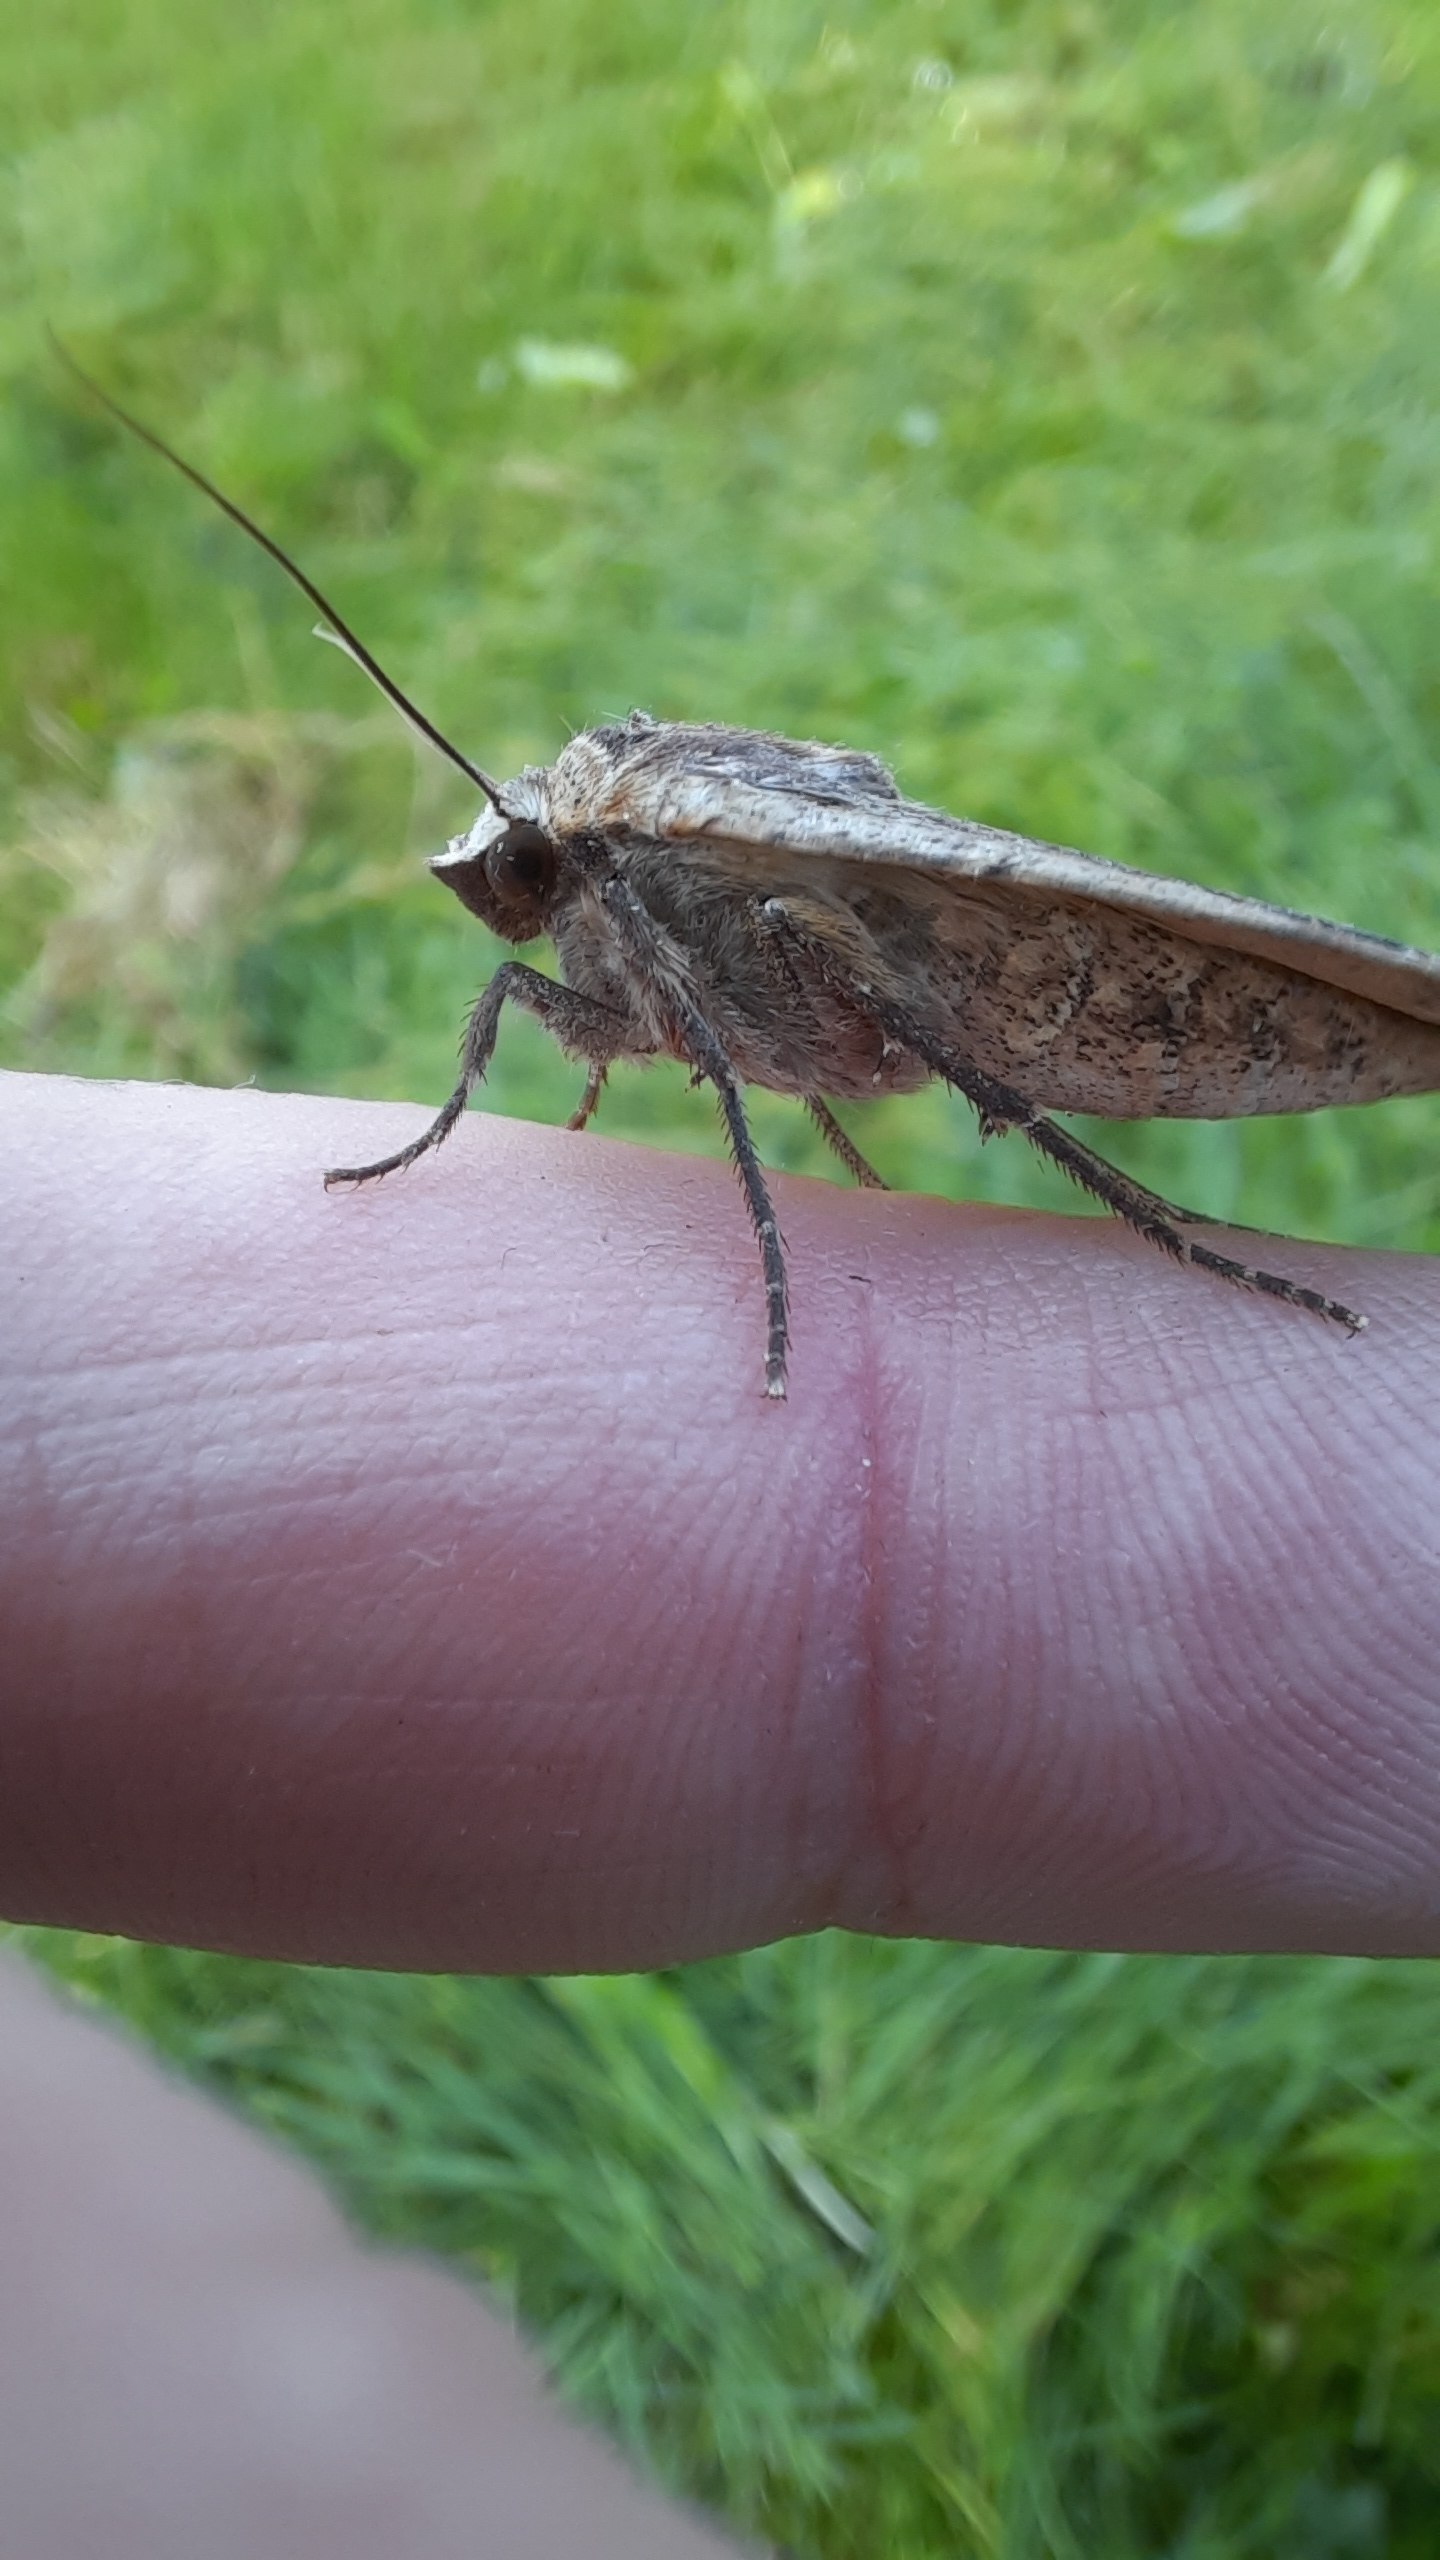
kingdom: Animalia
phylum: Arthropoda
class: Insecta
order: Lepidoptera
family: Noctuidae
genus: Noctua
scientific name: Noctua pronuba
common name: Stor smutugle
